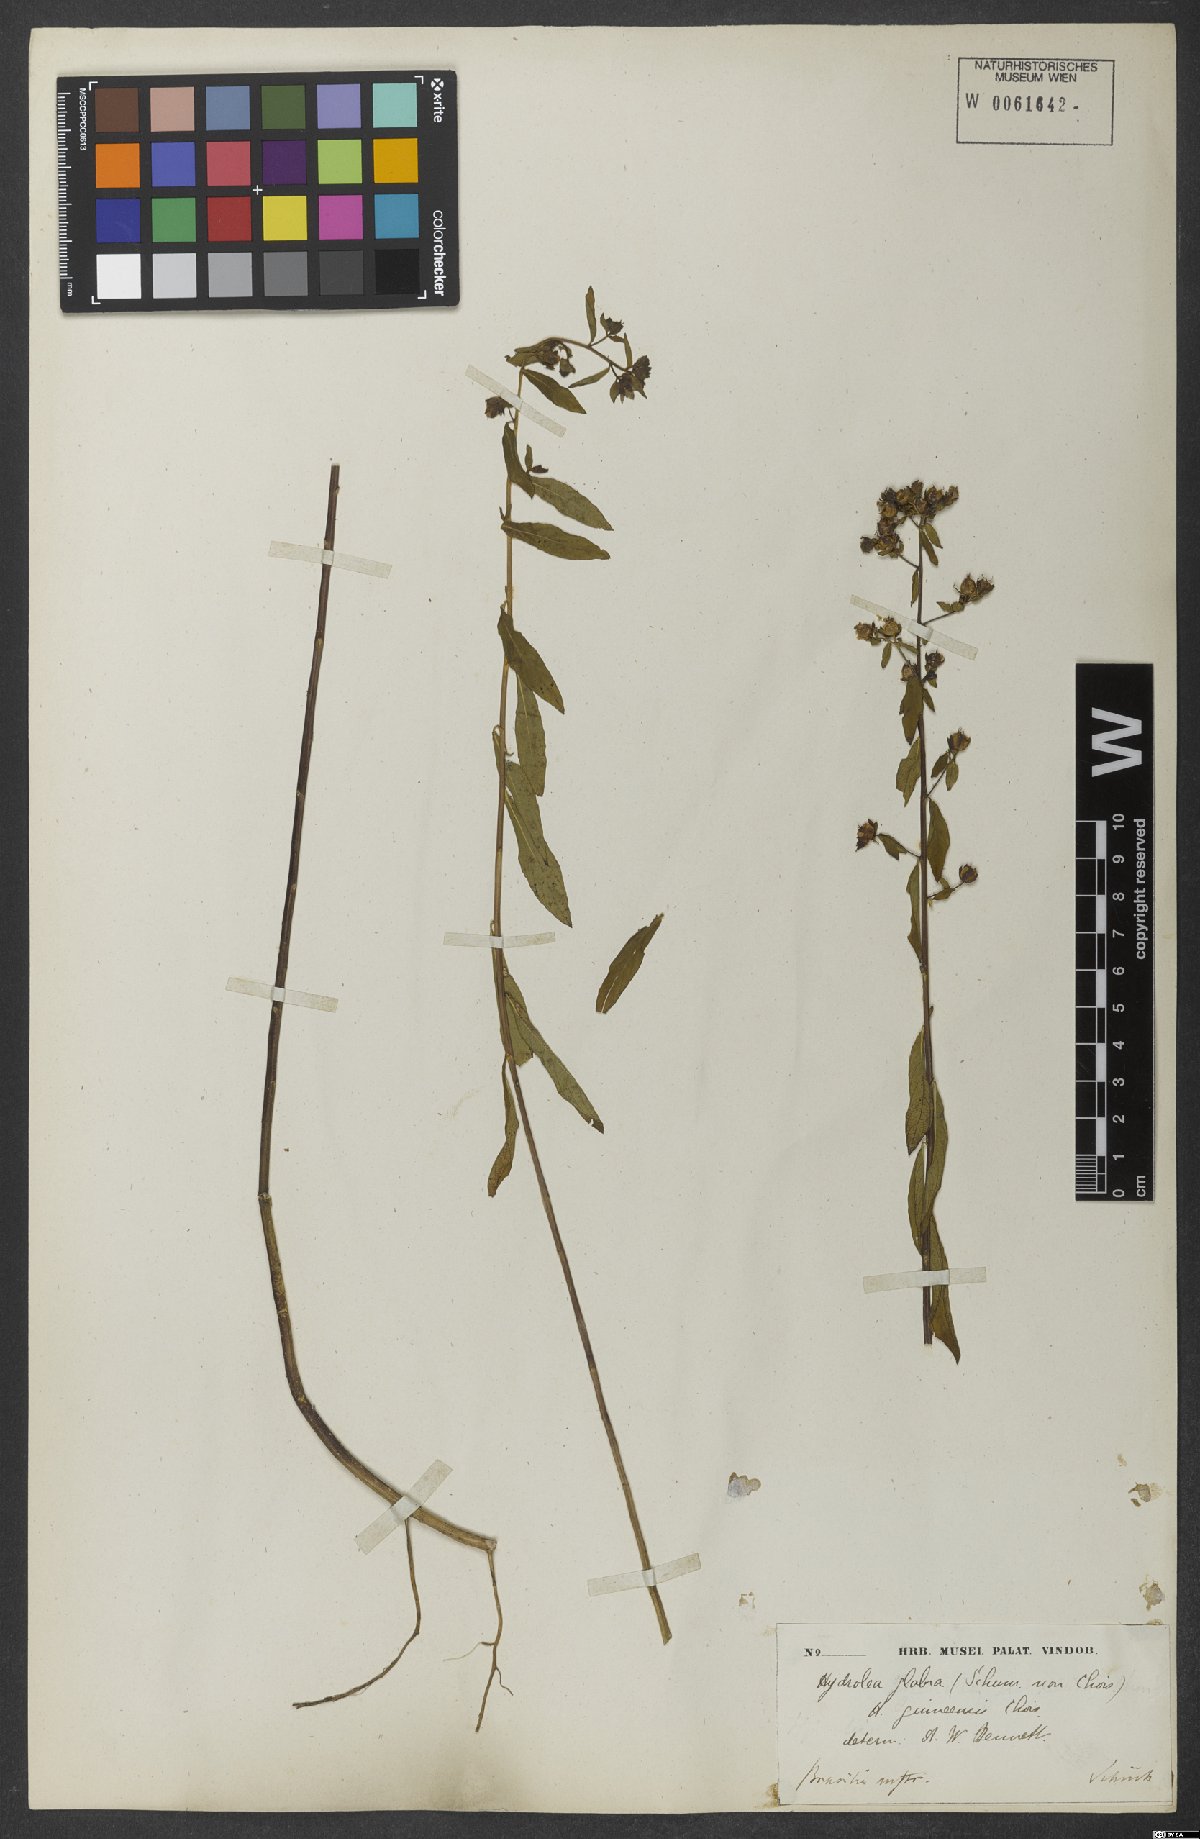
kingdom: Plantae
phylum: Tracheophyta
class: Magnoliopsida
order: Solanales
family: Hydroleaceae
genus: Hydrolea
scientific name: Hydrolea palustris
